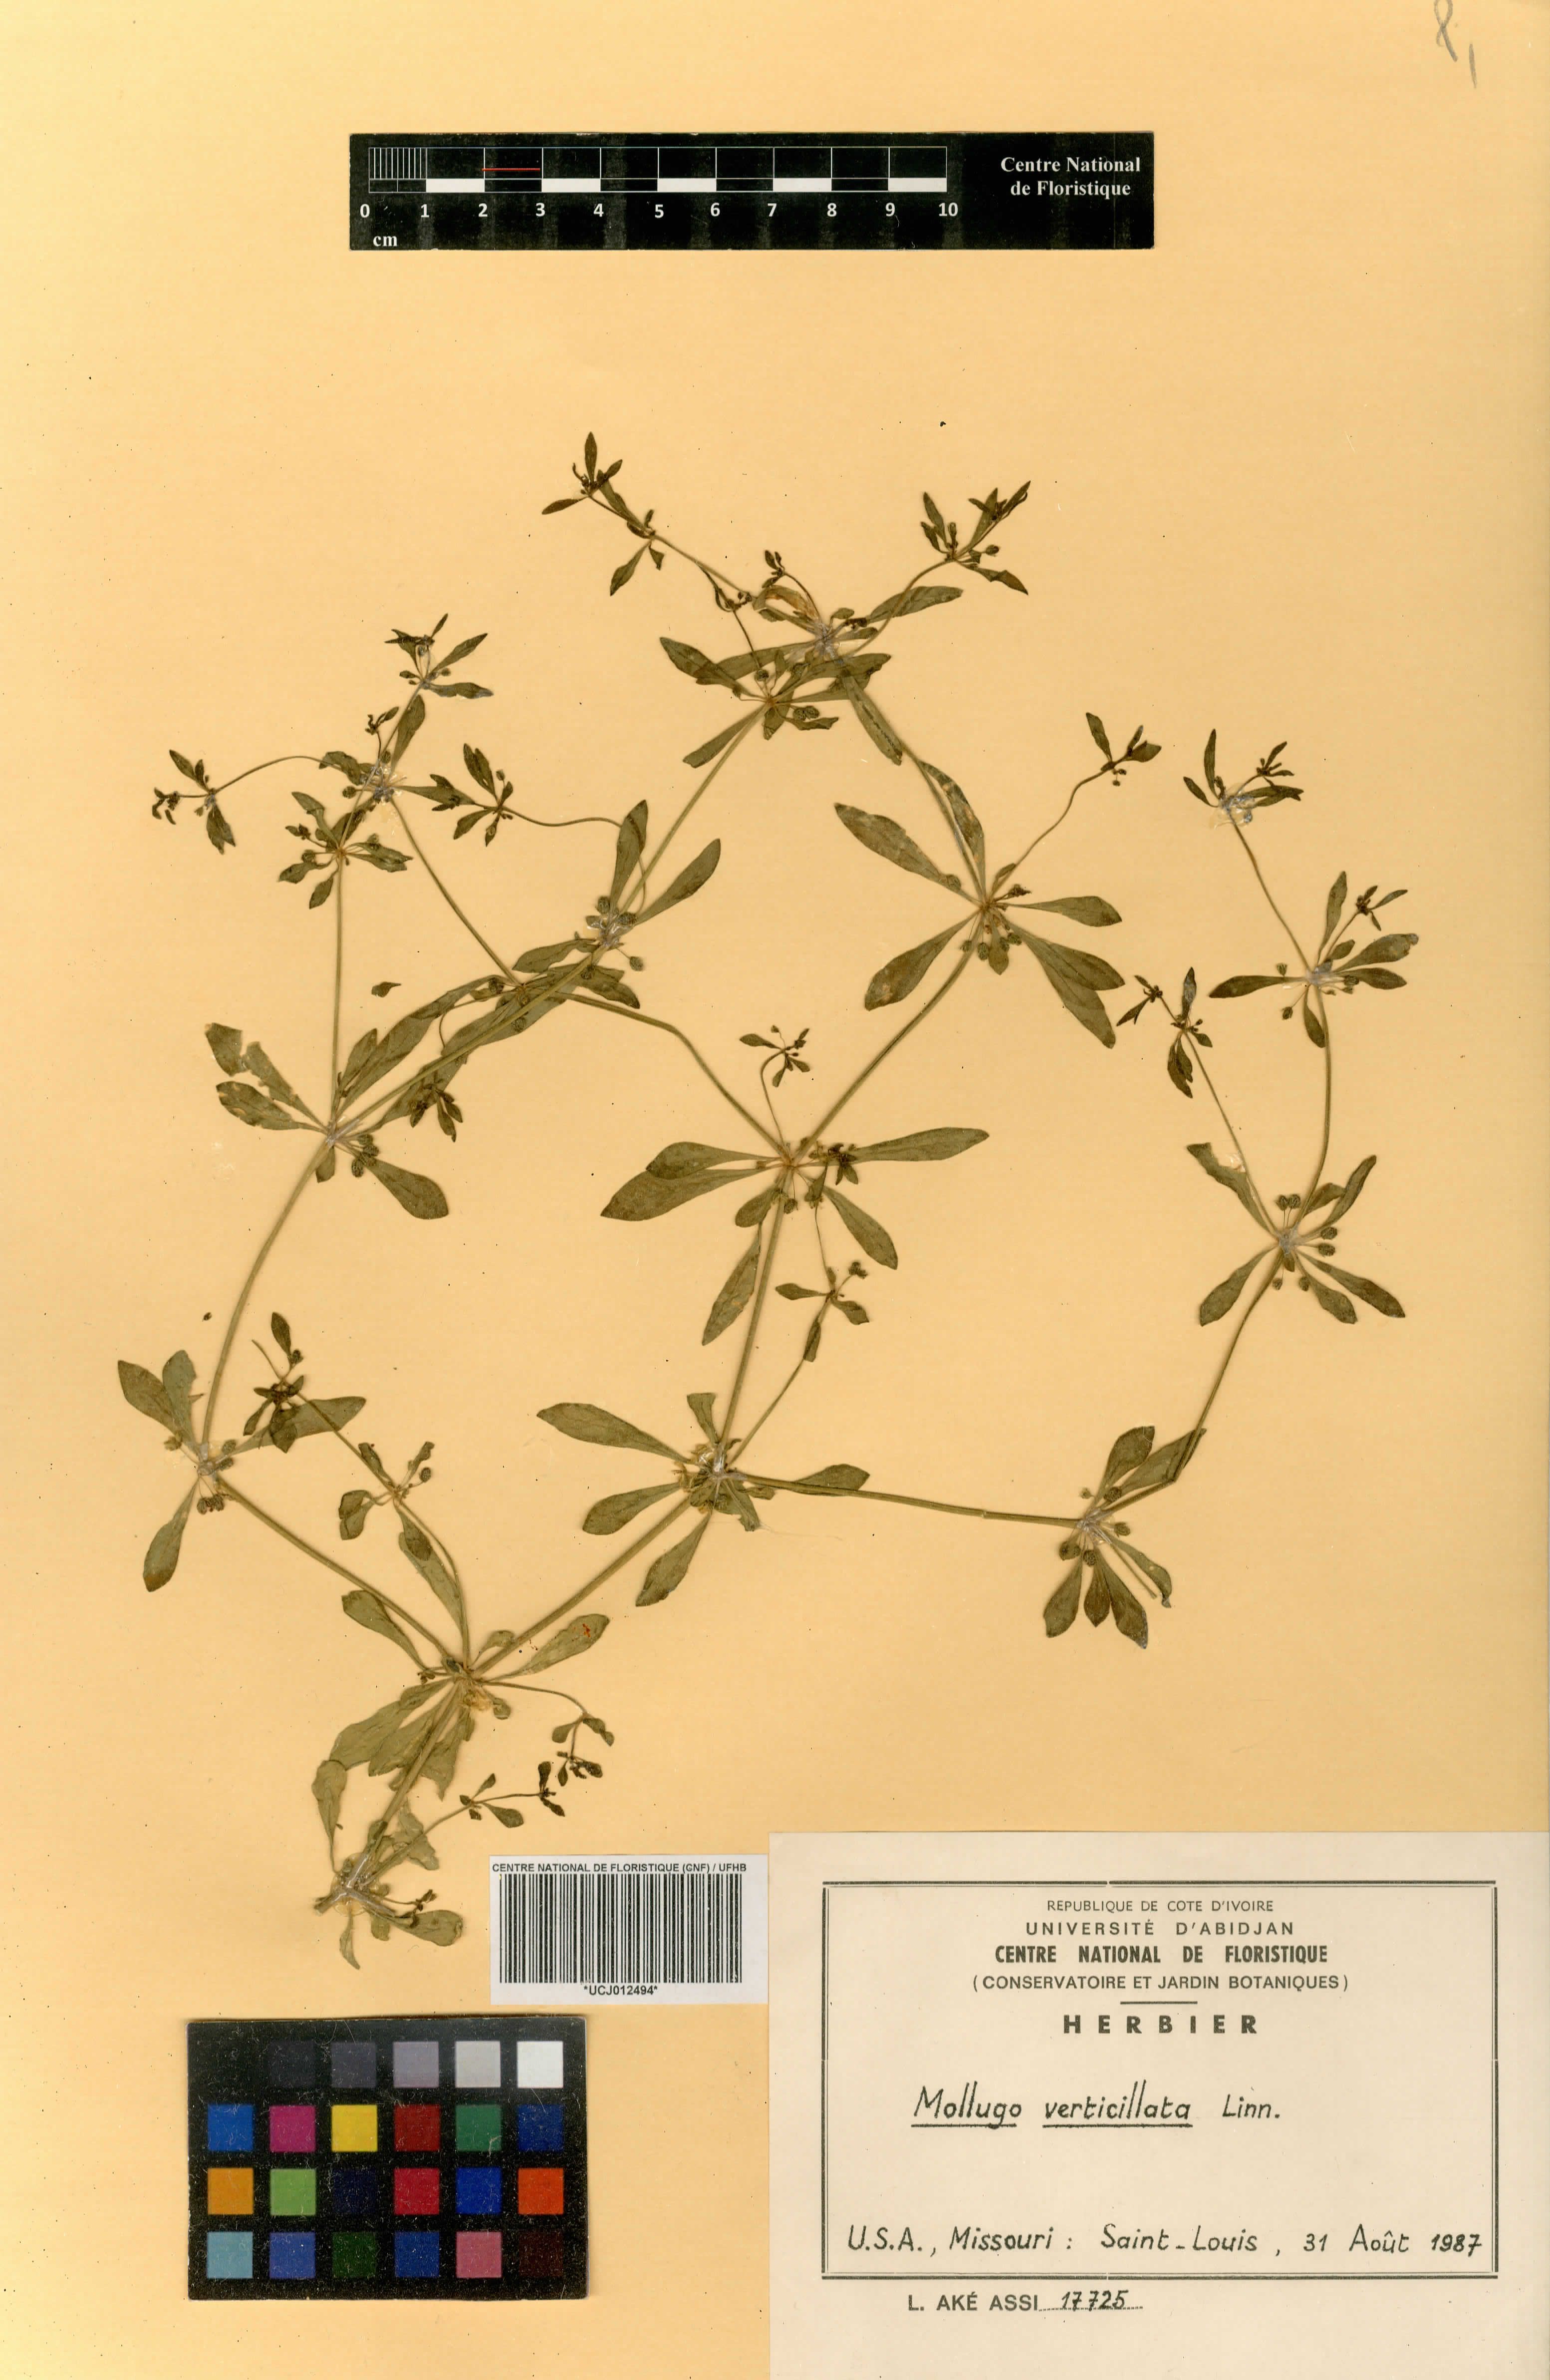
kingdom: Plantae
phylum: Tracheophyta
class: Magnoliopsida
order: Caryophyllales
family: Molluginaceae
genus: Mollugo
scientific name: Mollugo verticillata
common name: Green carpetweed
